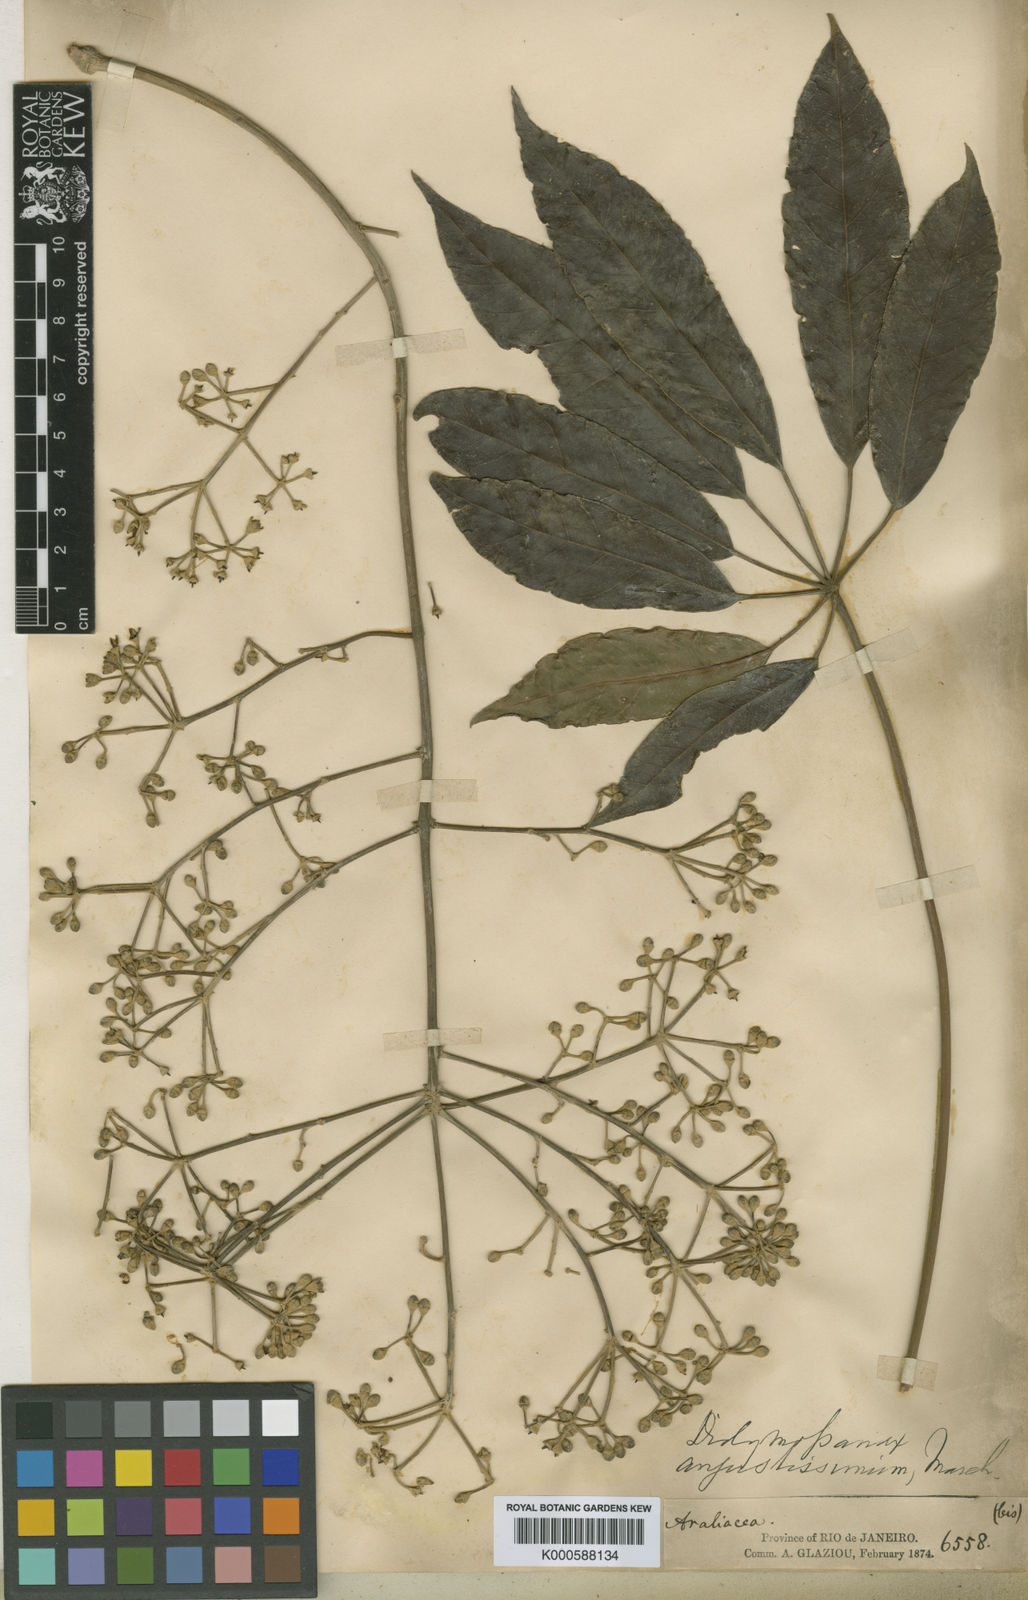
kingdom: Plantae
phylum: Tracheophyta
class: Magnoliopsida
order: Apiales
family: Araliaceae
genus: Didymopanax
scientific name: Didymopanax angustissimus
